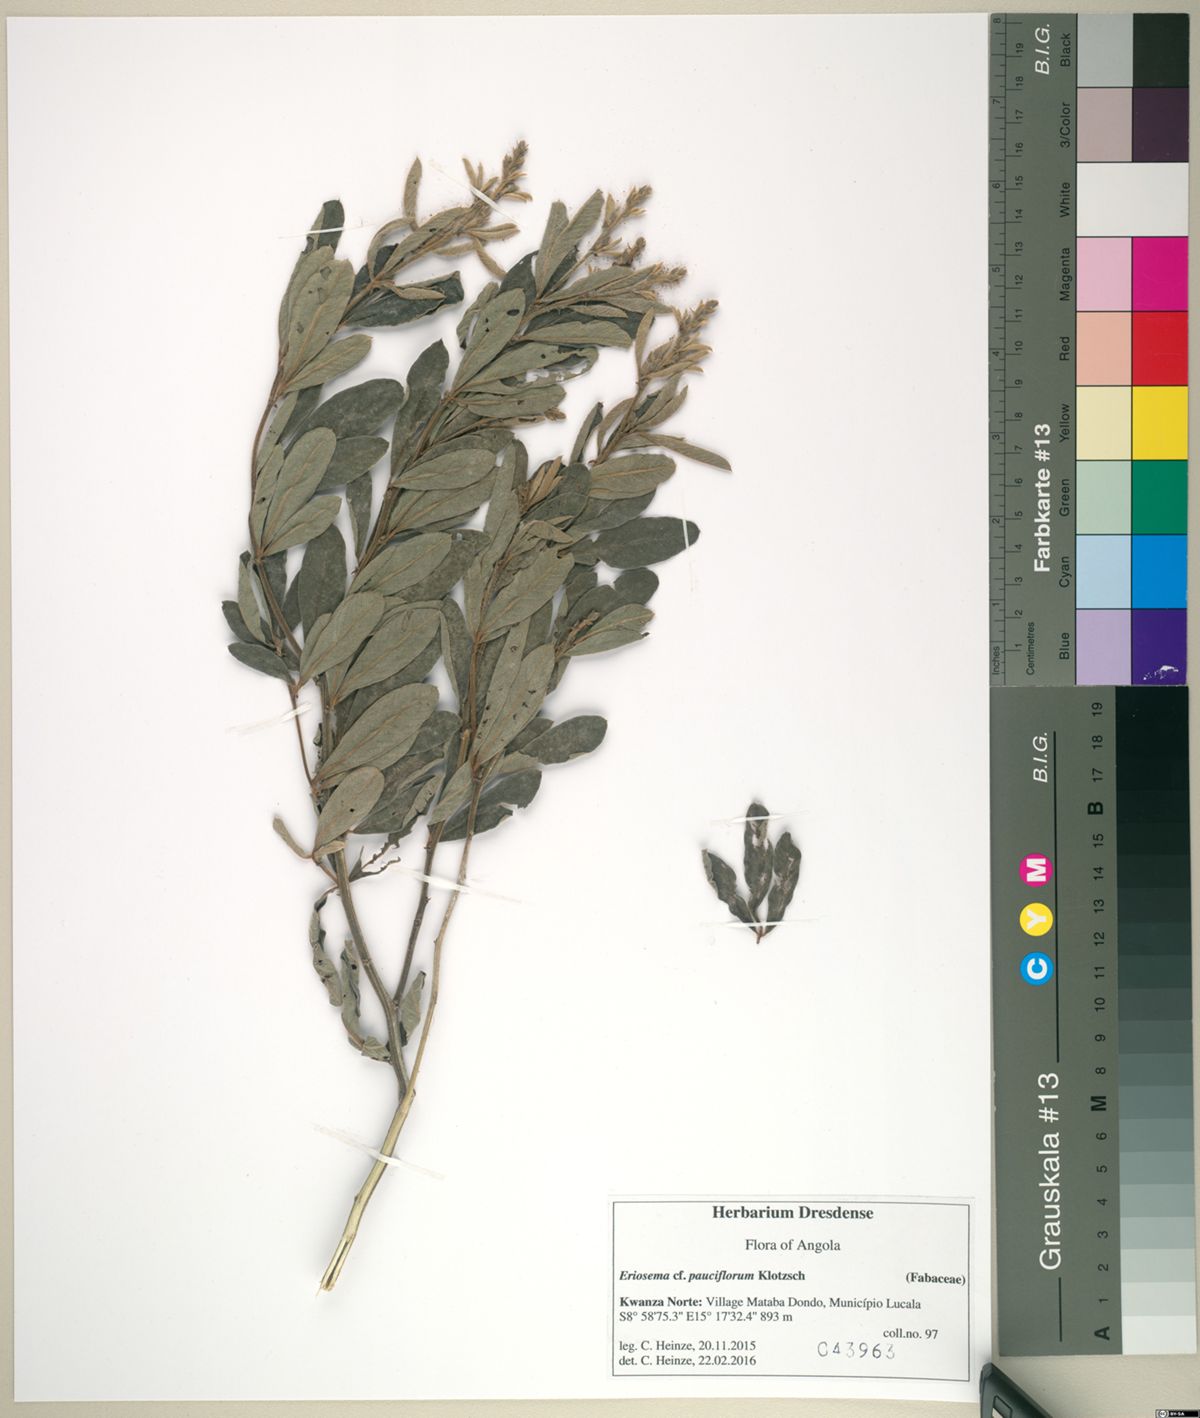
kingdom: Plantae
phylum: Tracheophyta
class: Magnoliopsida
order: Fabales
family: Fabaceae
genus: Eriosema
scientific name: Eriosema pauciflorum
